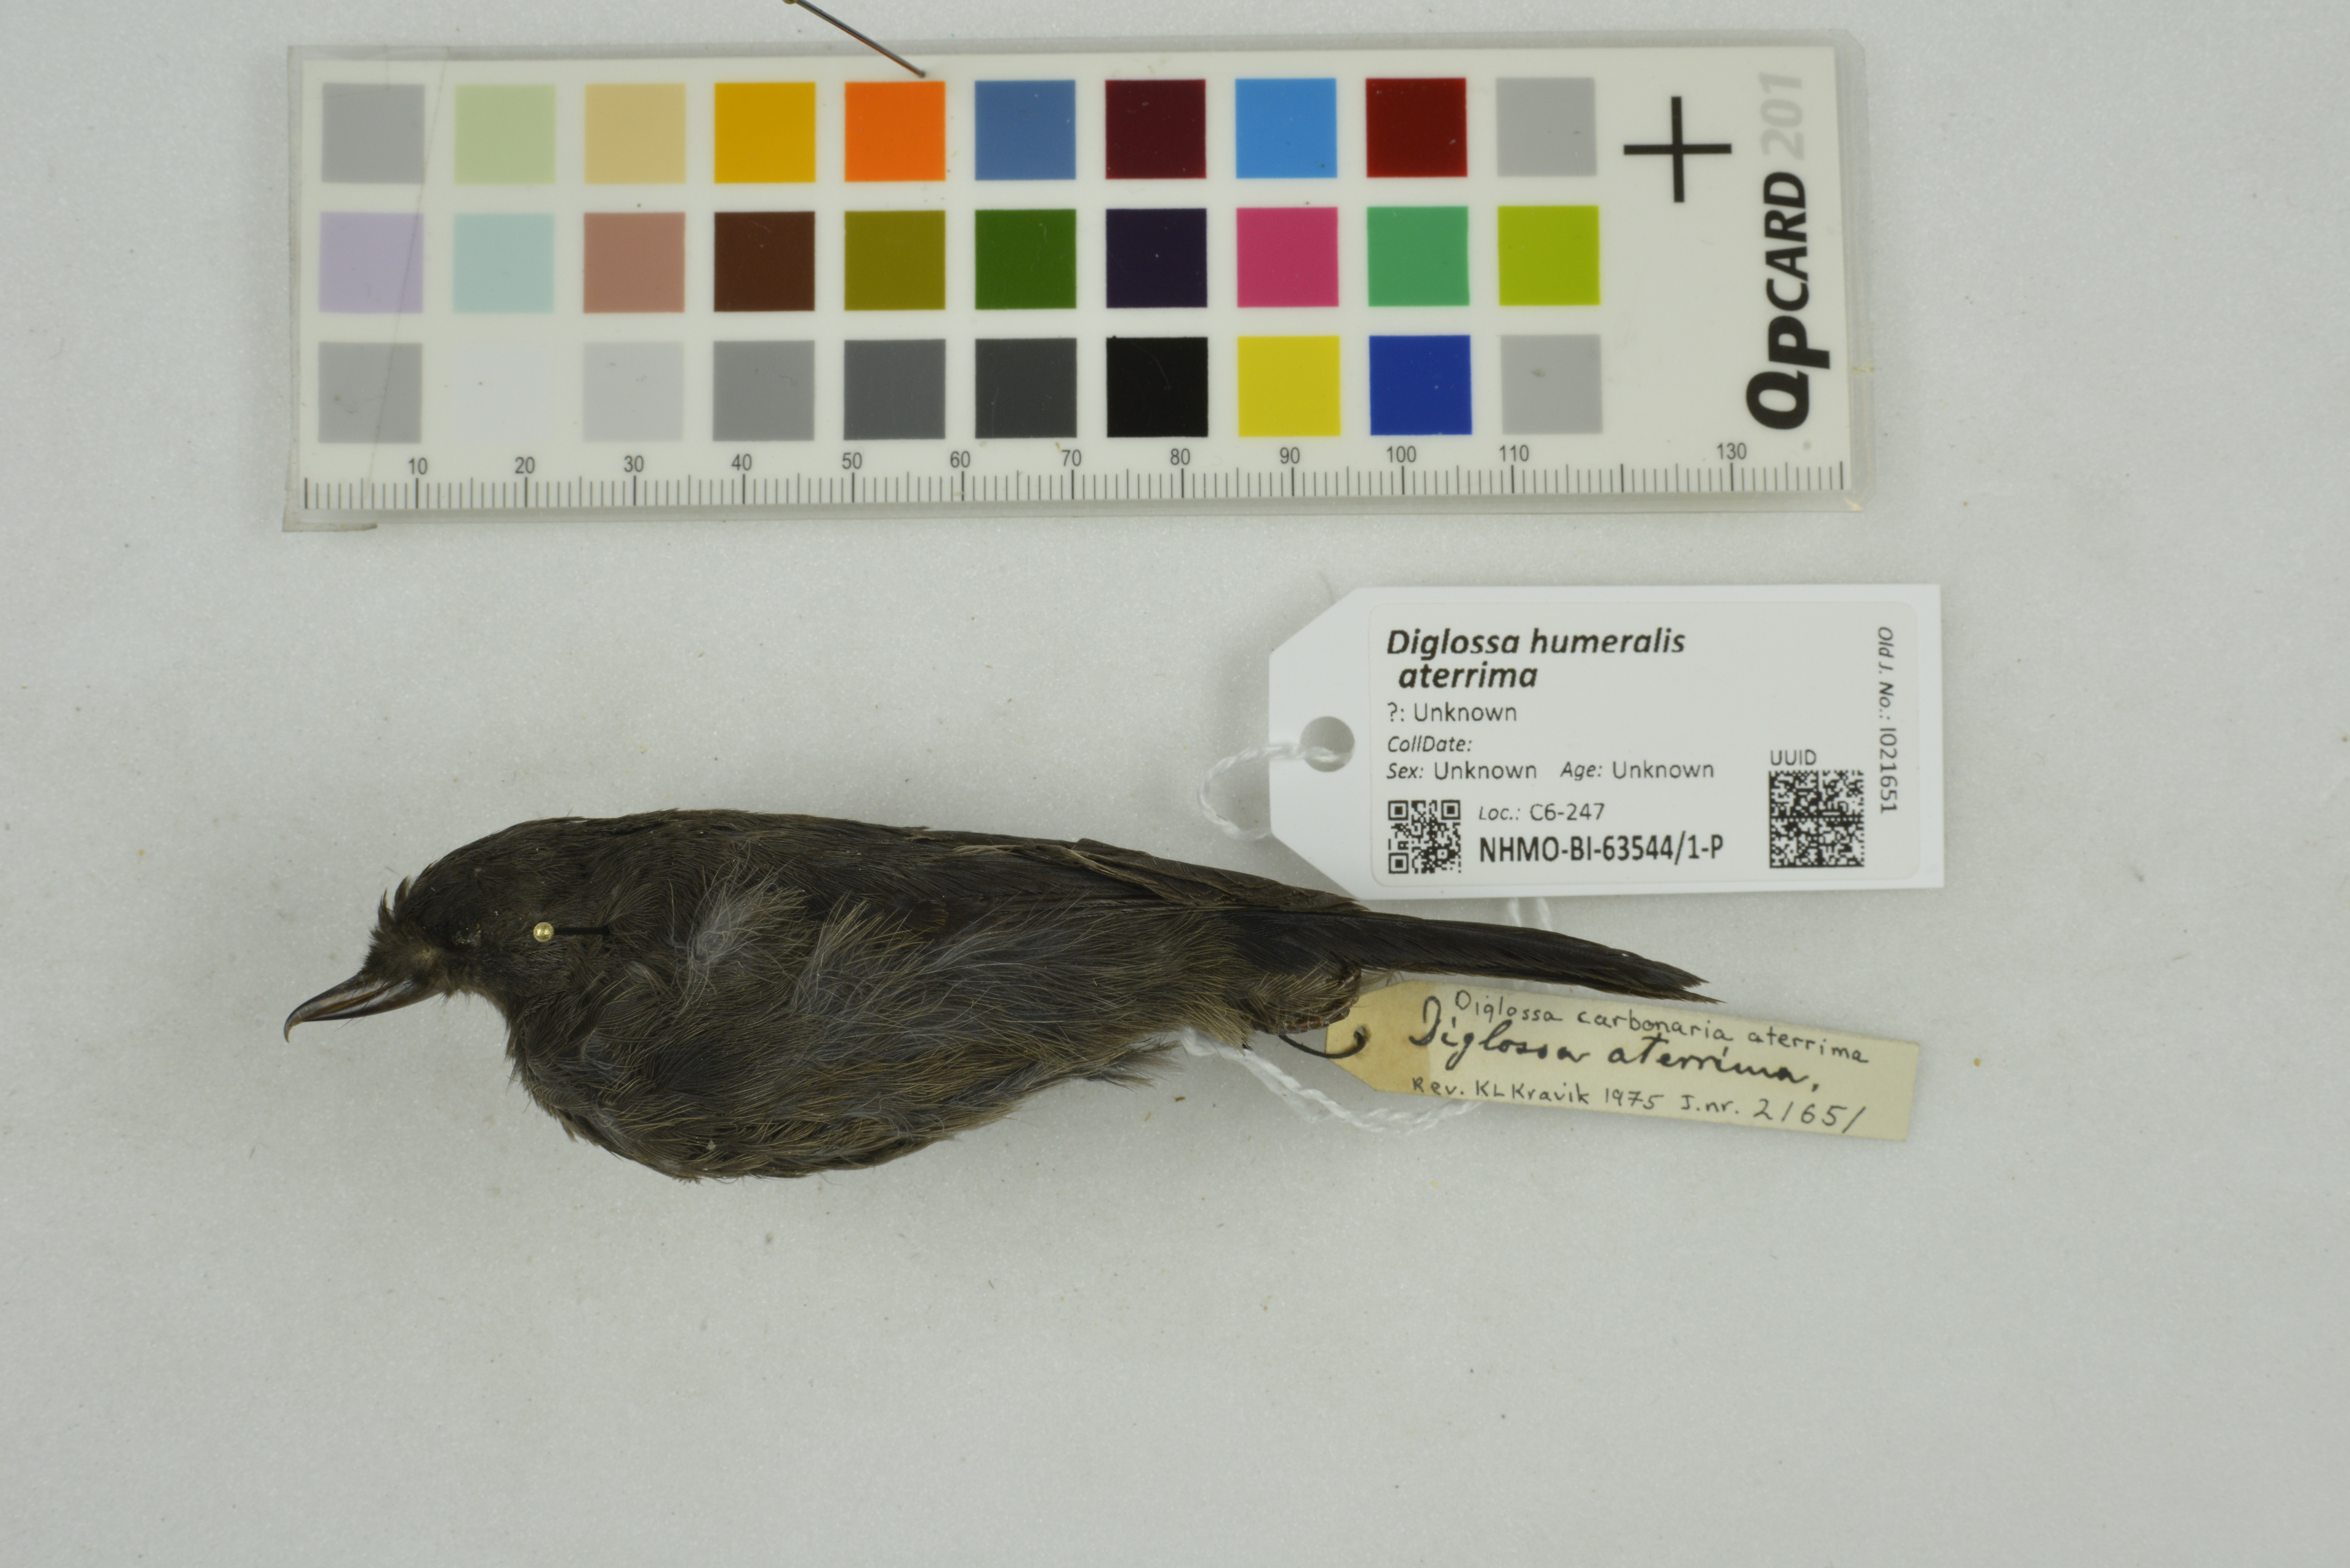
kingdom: Animalia
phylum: Chordata
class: Aves
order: Passeriformes
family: Thraupidae
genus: Diglossa
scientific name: Diglossa humeralis
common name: Black flowerpiercer
